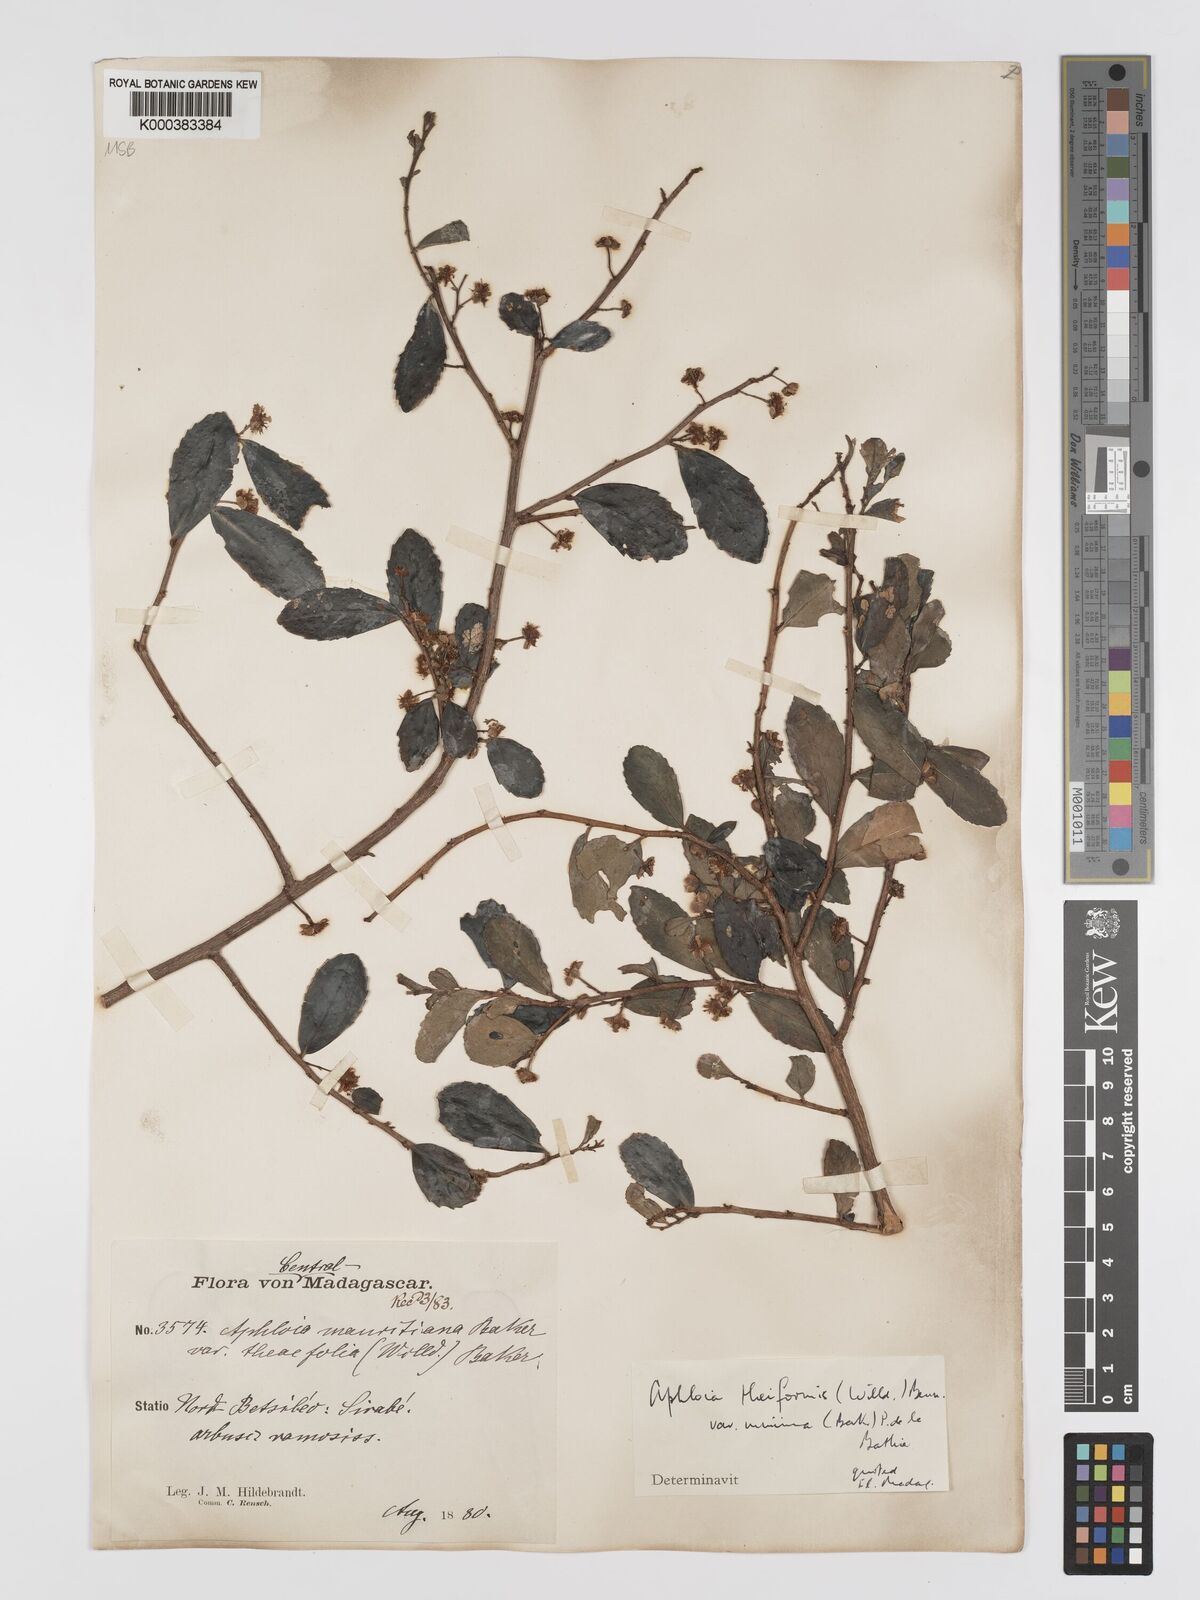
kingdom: Plantae
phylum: Tracheophyta
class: Magnoliopsida
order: Crossosomatales
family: Aphloiaceae
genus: Aphloia
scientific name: Aphloia theiformis
